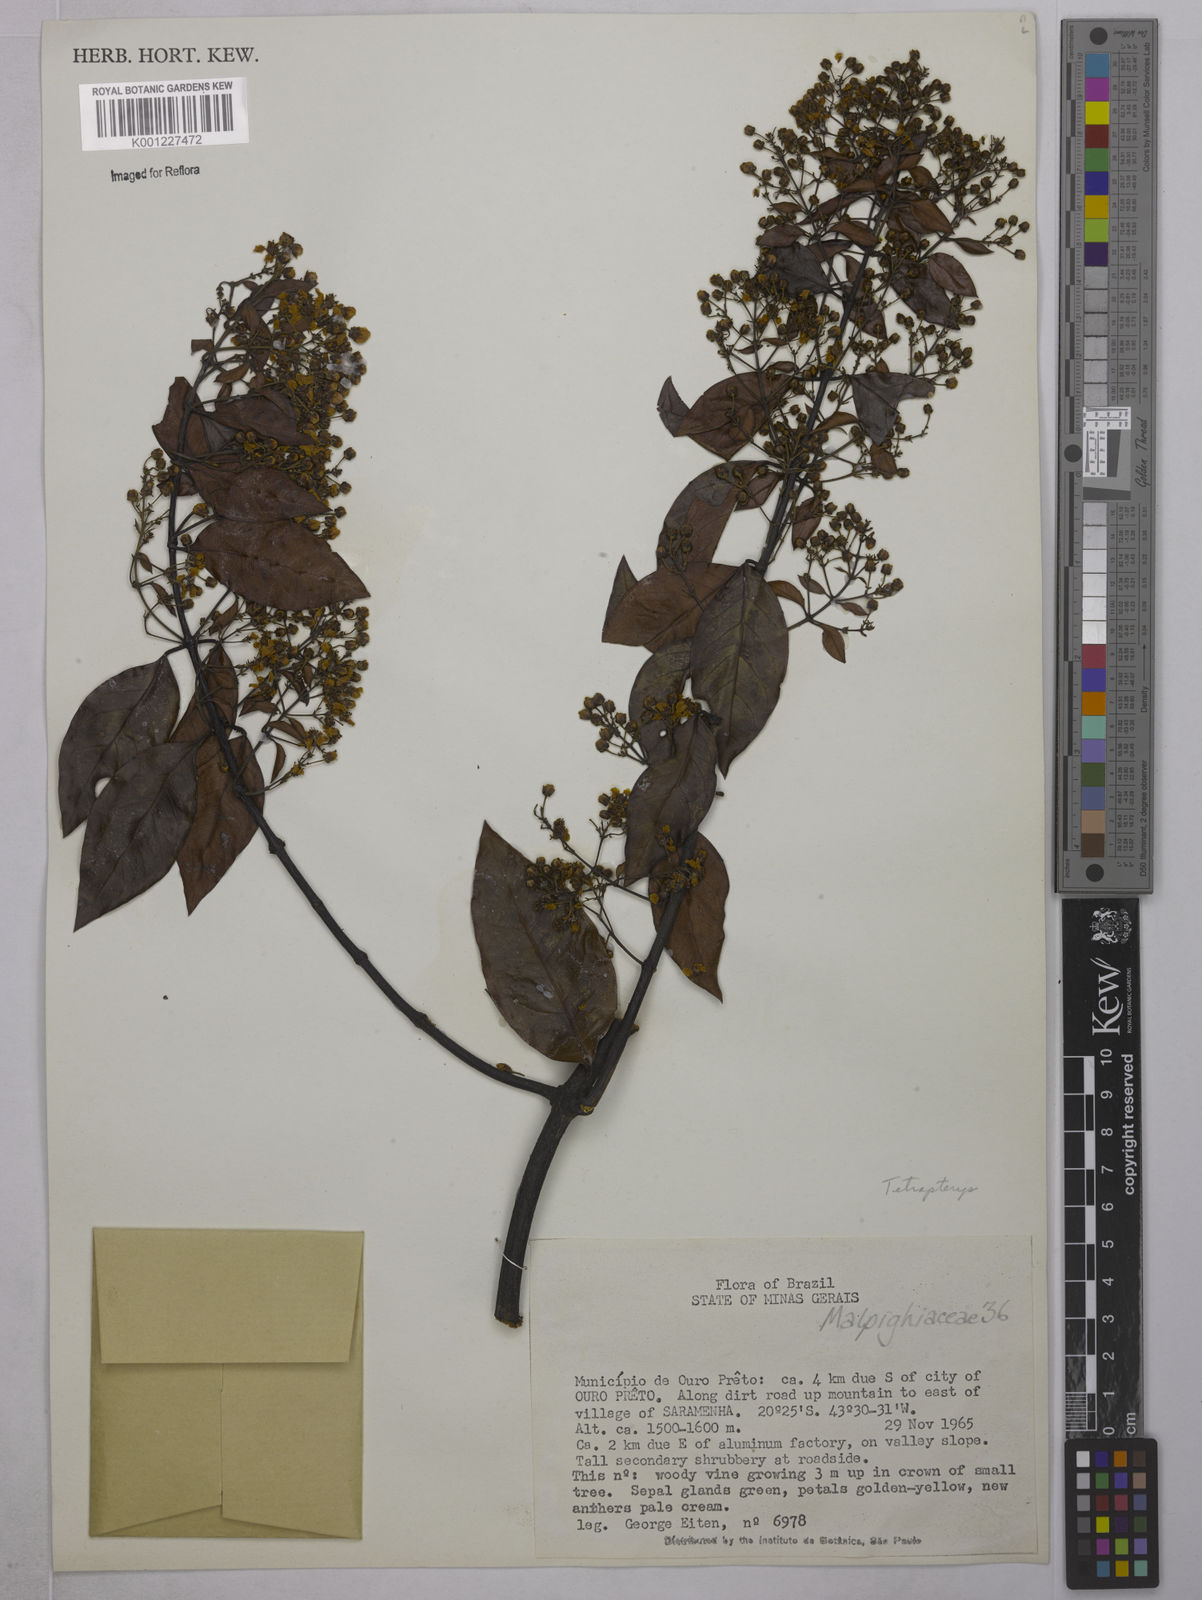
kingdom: Plantae
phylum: Tracheophyta
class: Magnoliopsida
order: Malpighiales
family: Malpighiaceae
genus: Tetrapterys
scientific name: Tetrapterys
